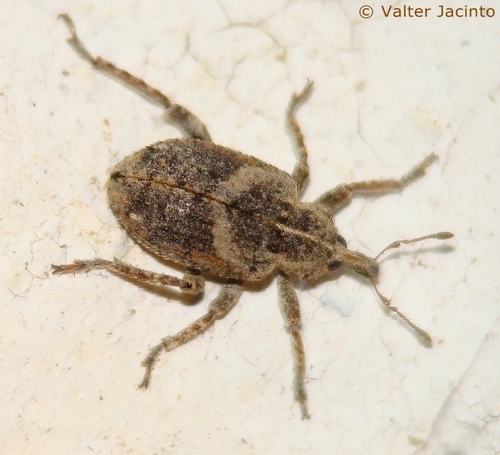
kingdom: Animalia
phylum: Arthropoda
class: Insecta
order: Coleoptera
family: Curculionidae
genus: Brachypera
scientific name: Brachypera lunata
